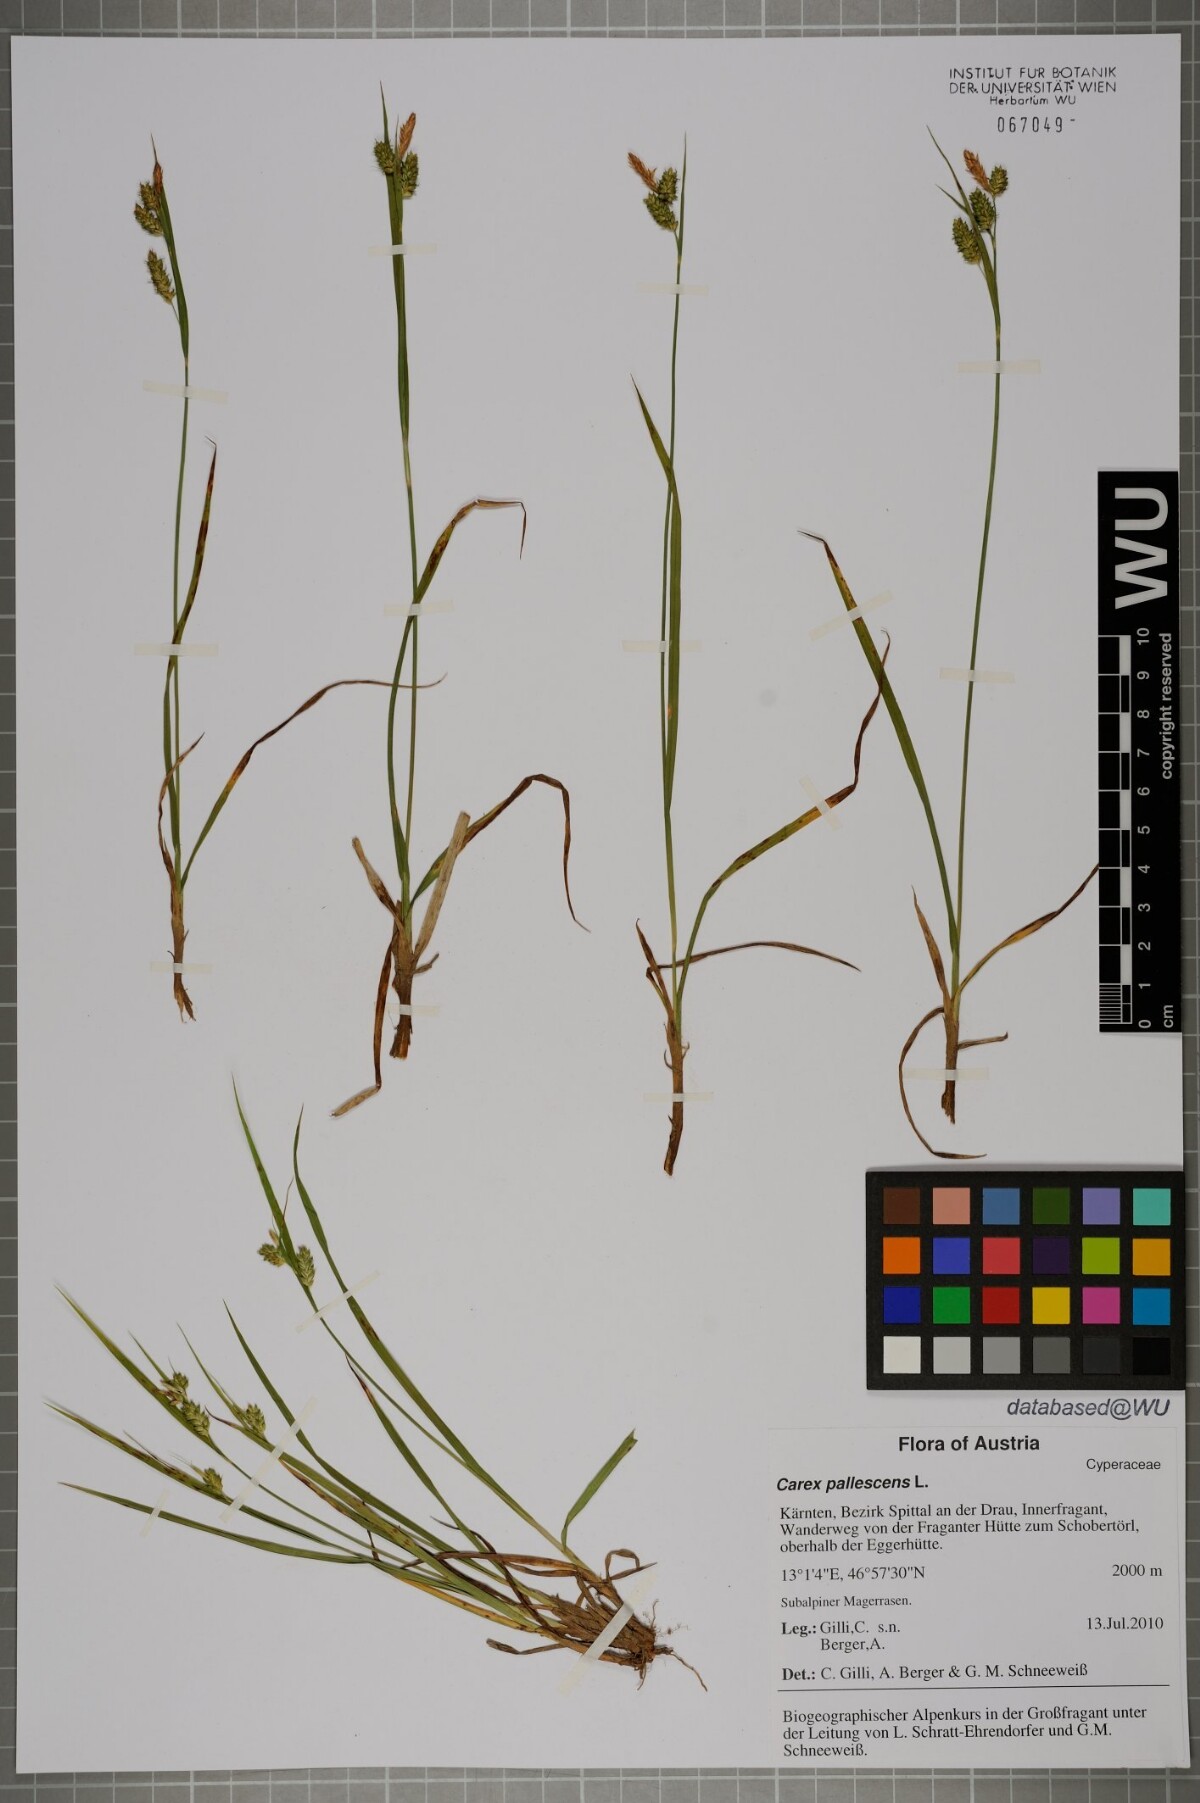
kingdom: Plantae
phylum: Tracheophyta
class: Liliopsida
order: Poales
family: Cyperaceae
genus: Carex
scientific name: Carex pallescens
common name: Pale sedge
